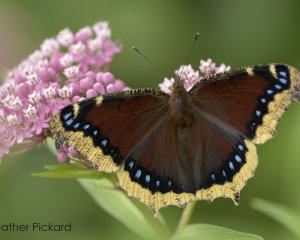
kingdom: Animalia
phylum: Arthropoda
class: Insecta
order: Lepidoptera
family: Nymphalidae
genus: Nymphalis
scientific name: Nymphalis antiopa
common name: Mourning Cloak
